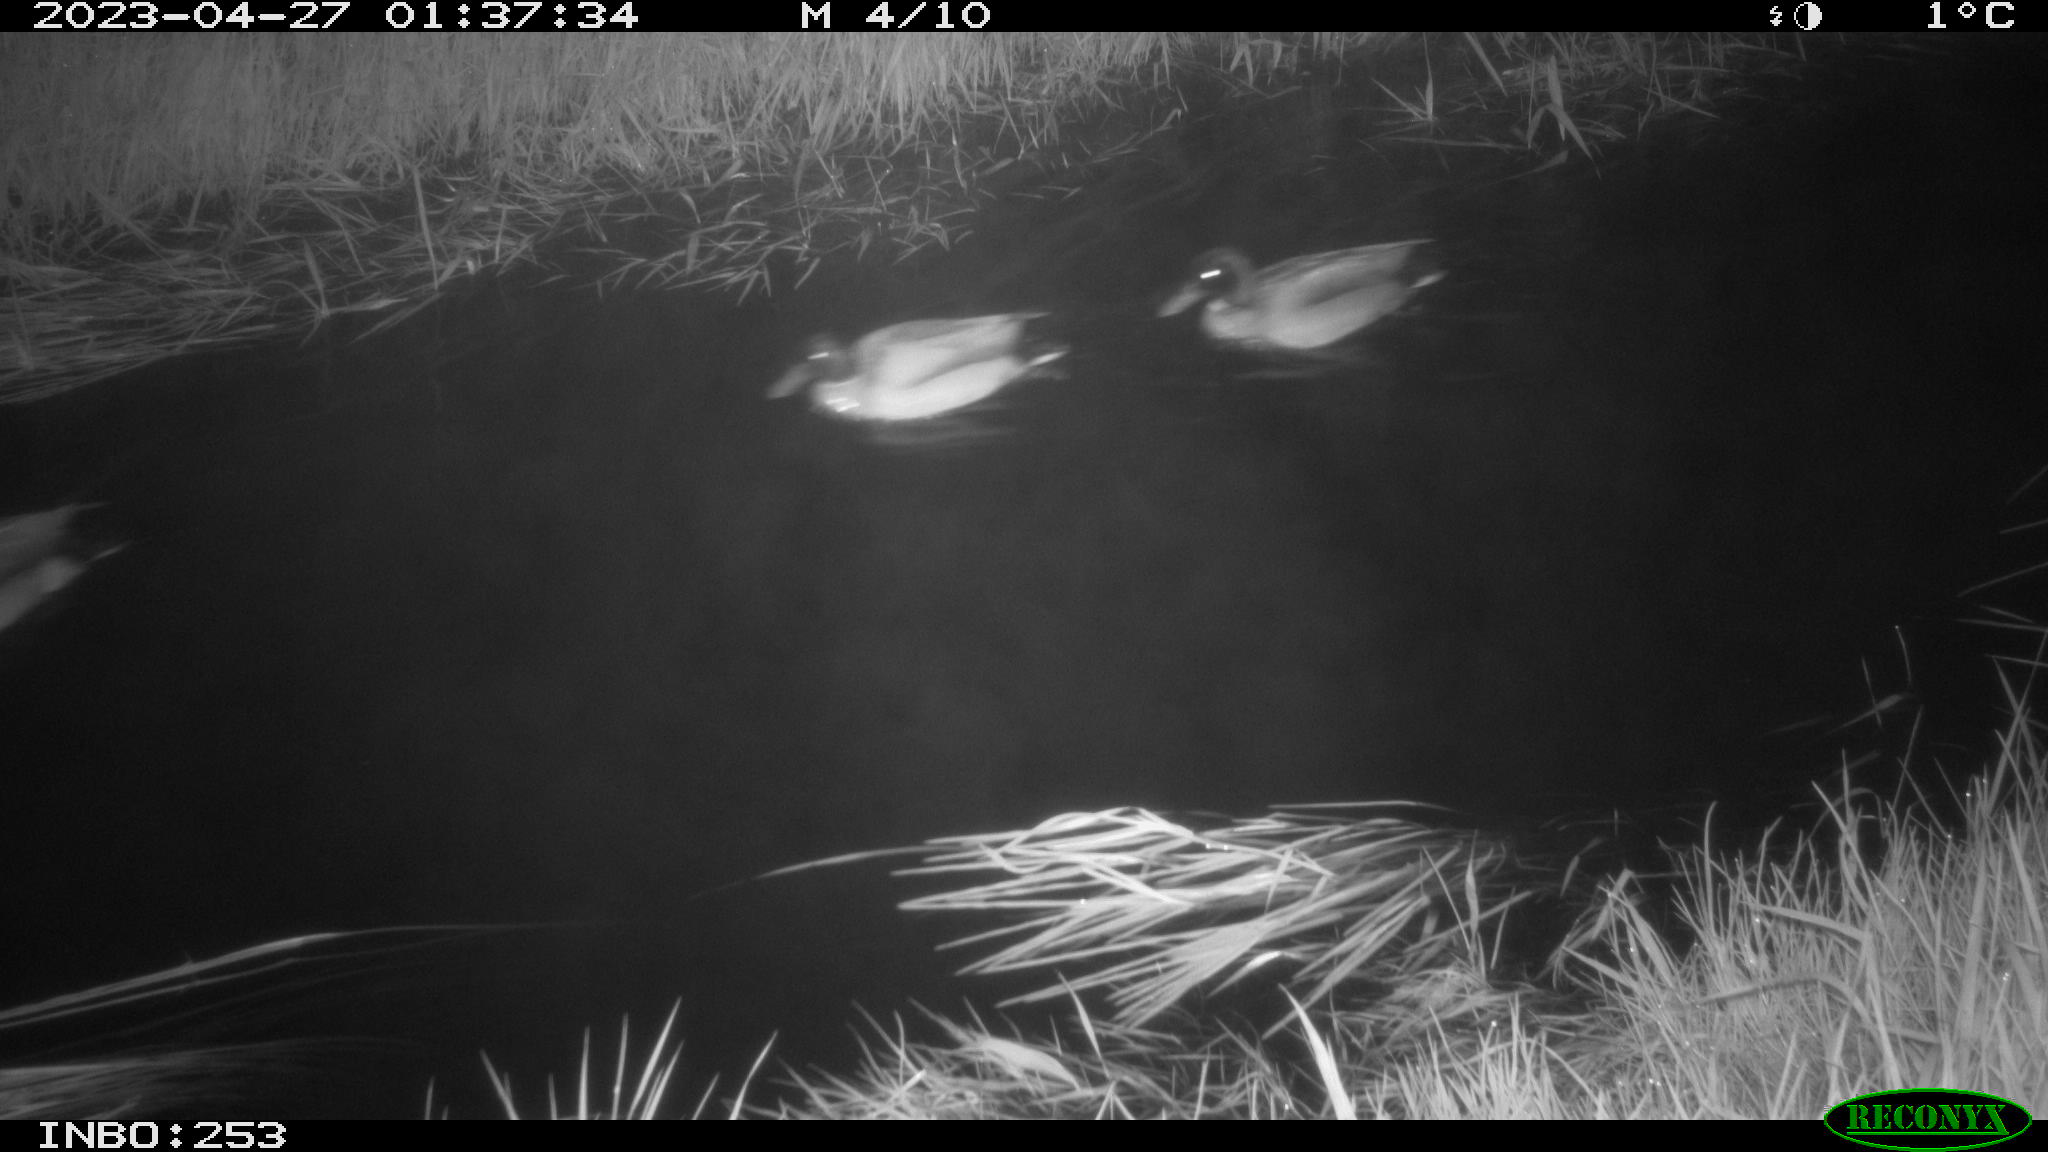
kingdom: Animalia
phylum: Chordata
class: Aves
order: Anseriformes
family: Anatidae
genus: Anas
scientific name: Anas
